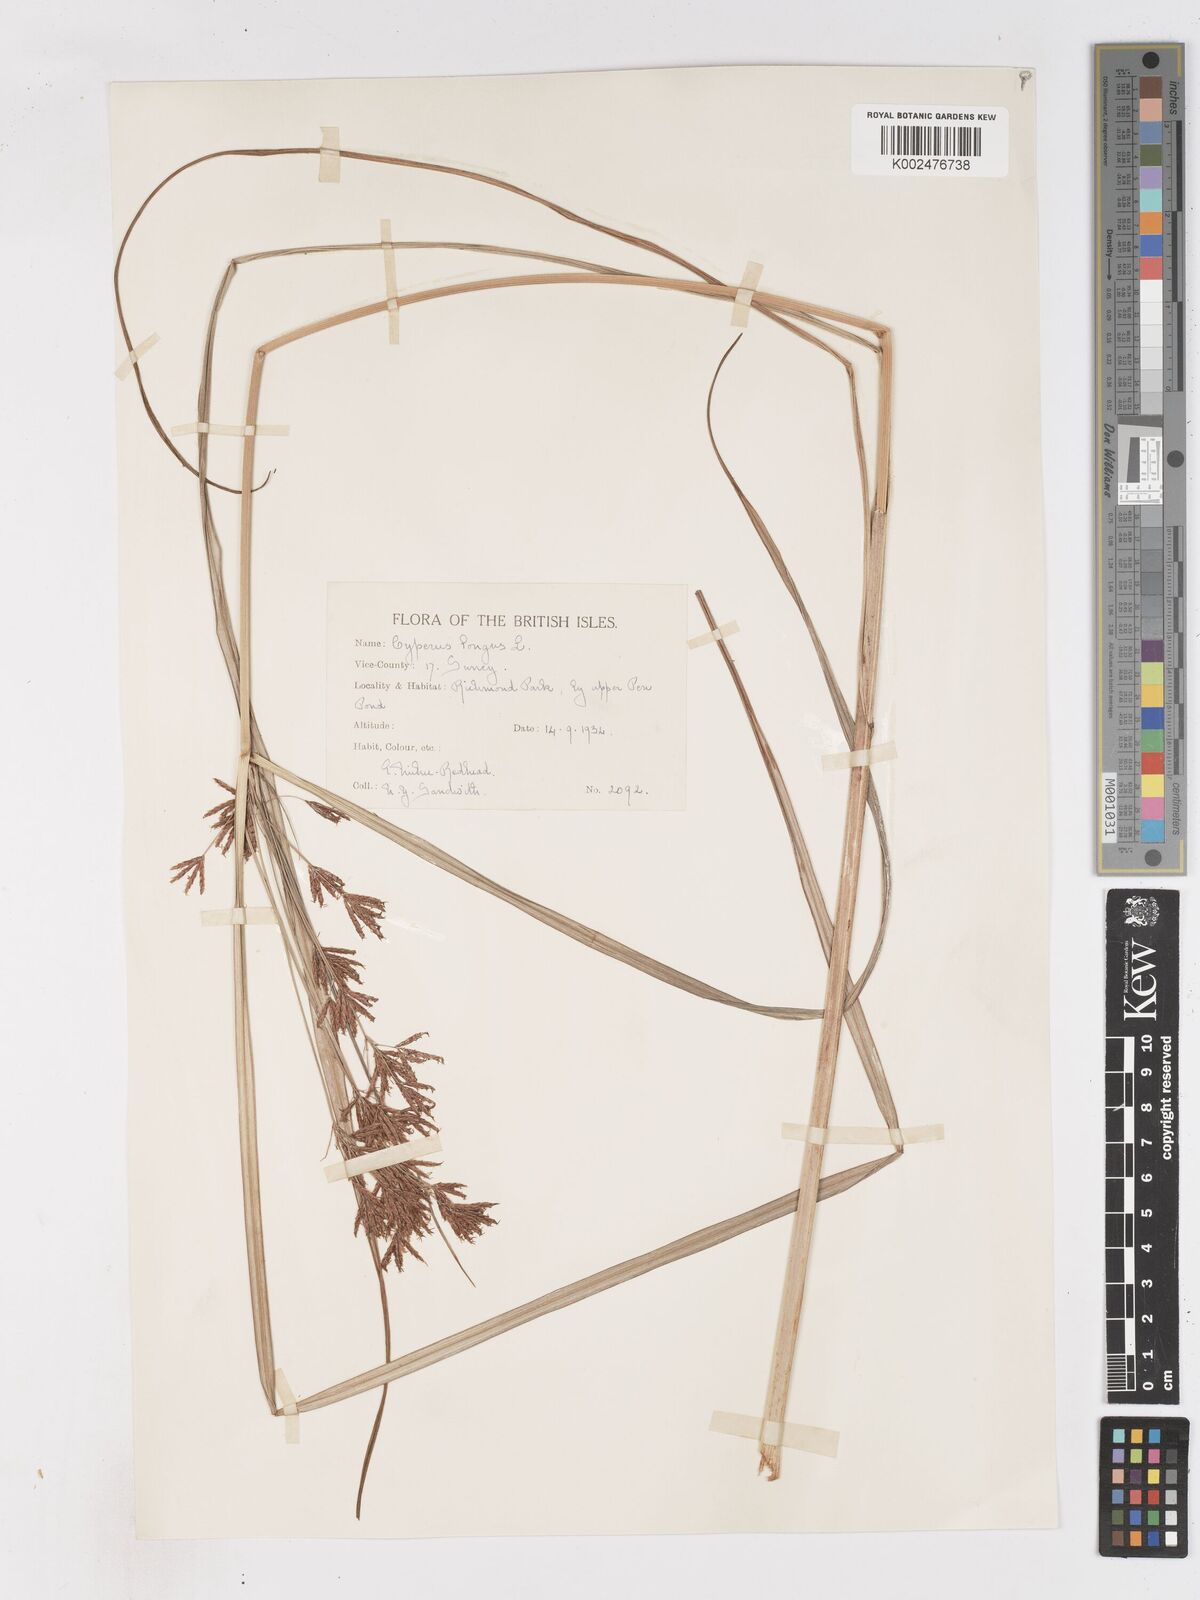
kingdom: Plantae
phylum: Tracheophyta
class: Liliopsida
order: Poales
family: Cyperaceae
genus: Cyperus
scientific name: Cyperus longus
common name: Galingale
